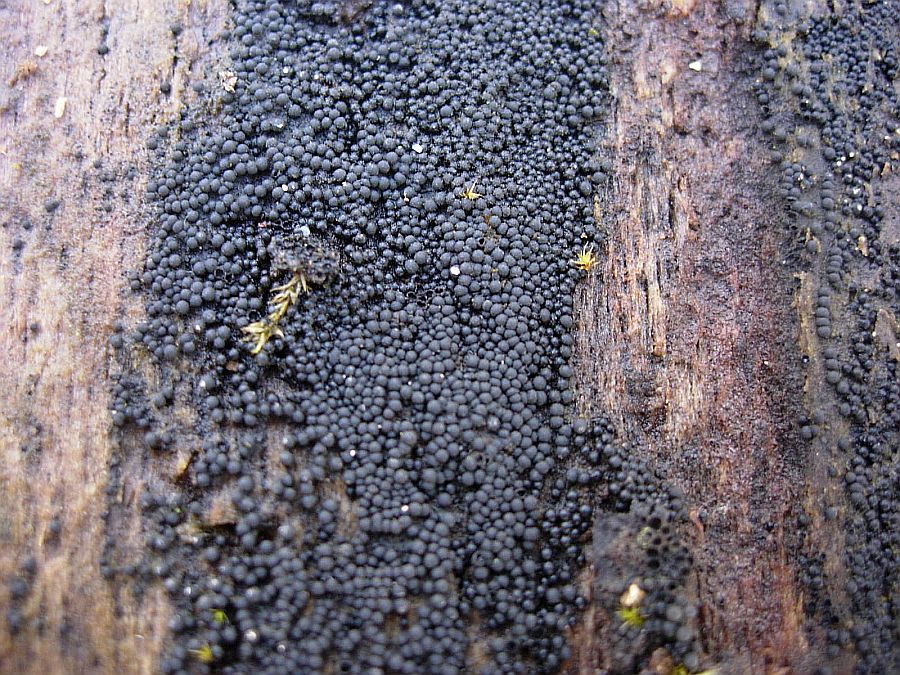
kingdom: Fungi
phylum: Ascomycota
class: Sordariomycetes
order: Sordariales
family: Helminthosphaeriaceae
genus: Ruzenia
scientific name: Ruzenia spermoides
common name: glat børstekerne
